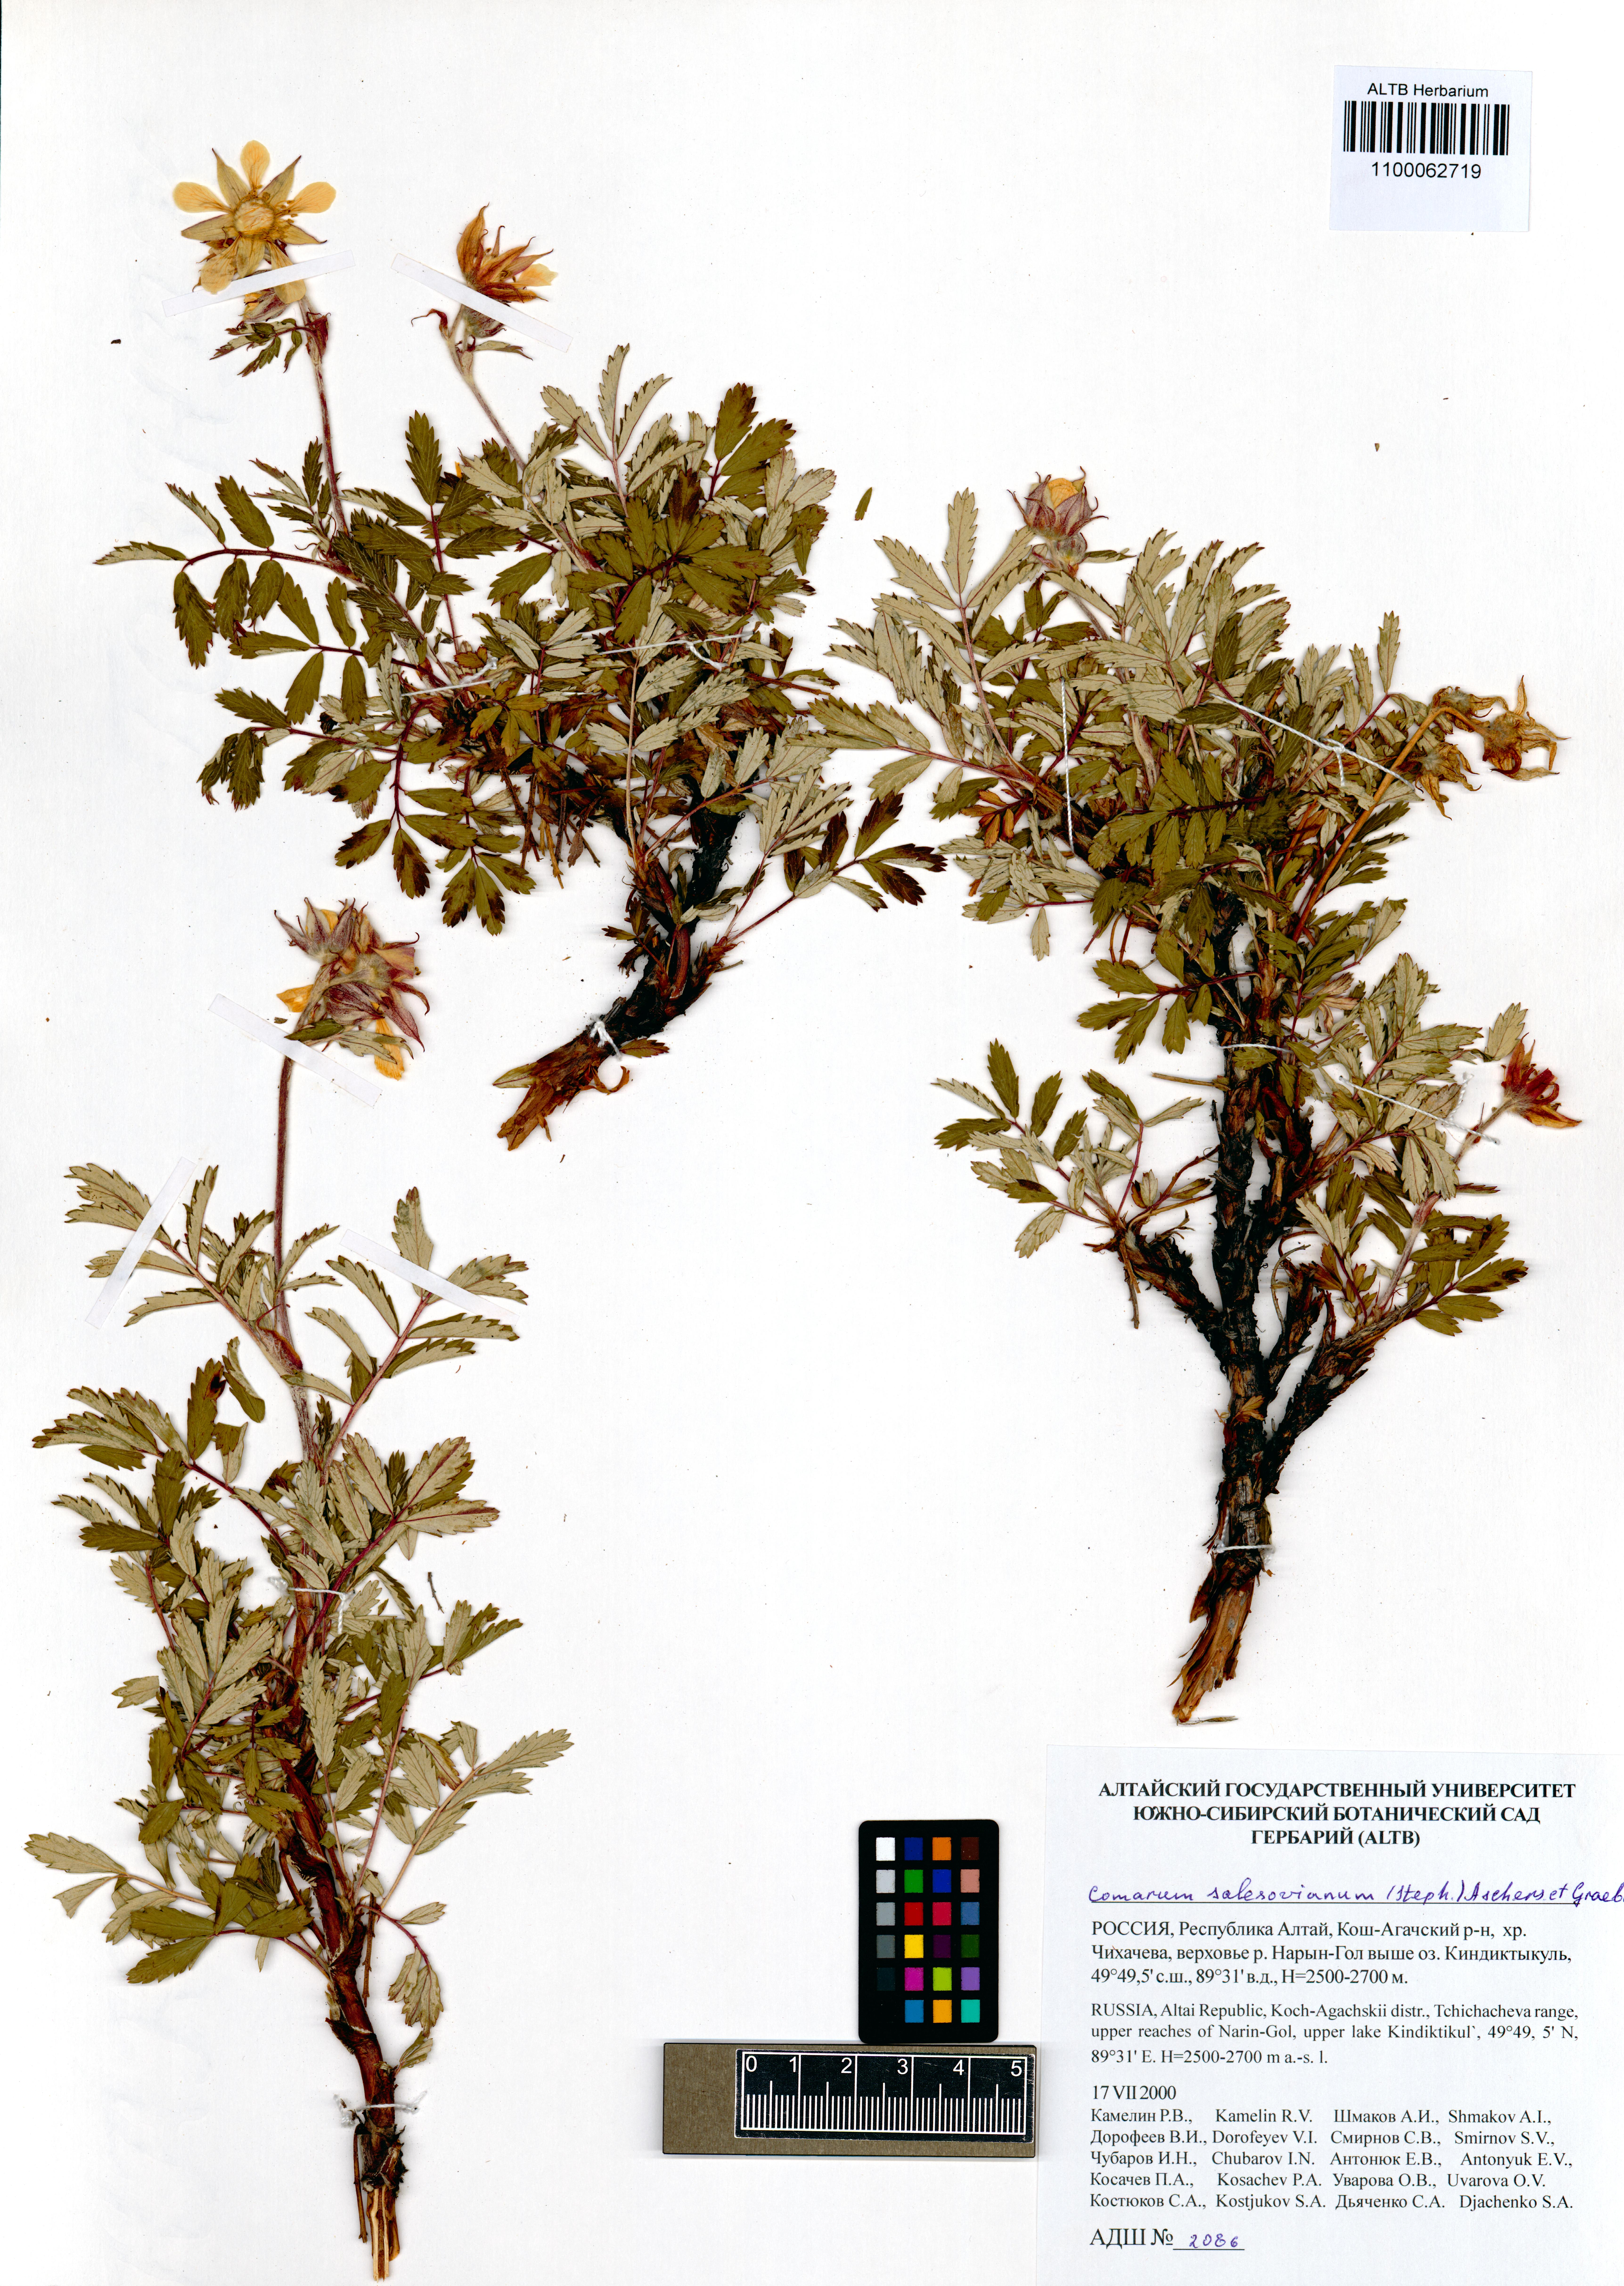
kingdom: Plantae
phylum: Tracheophyta
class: Magnoliopsida
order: Rosales
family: Rosaceae
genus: Farinopsis
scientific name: Farinopsis salesoviana
